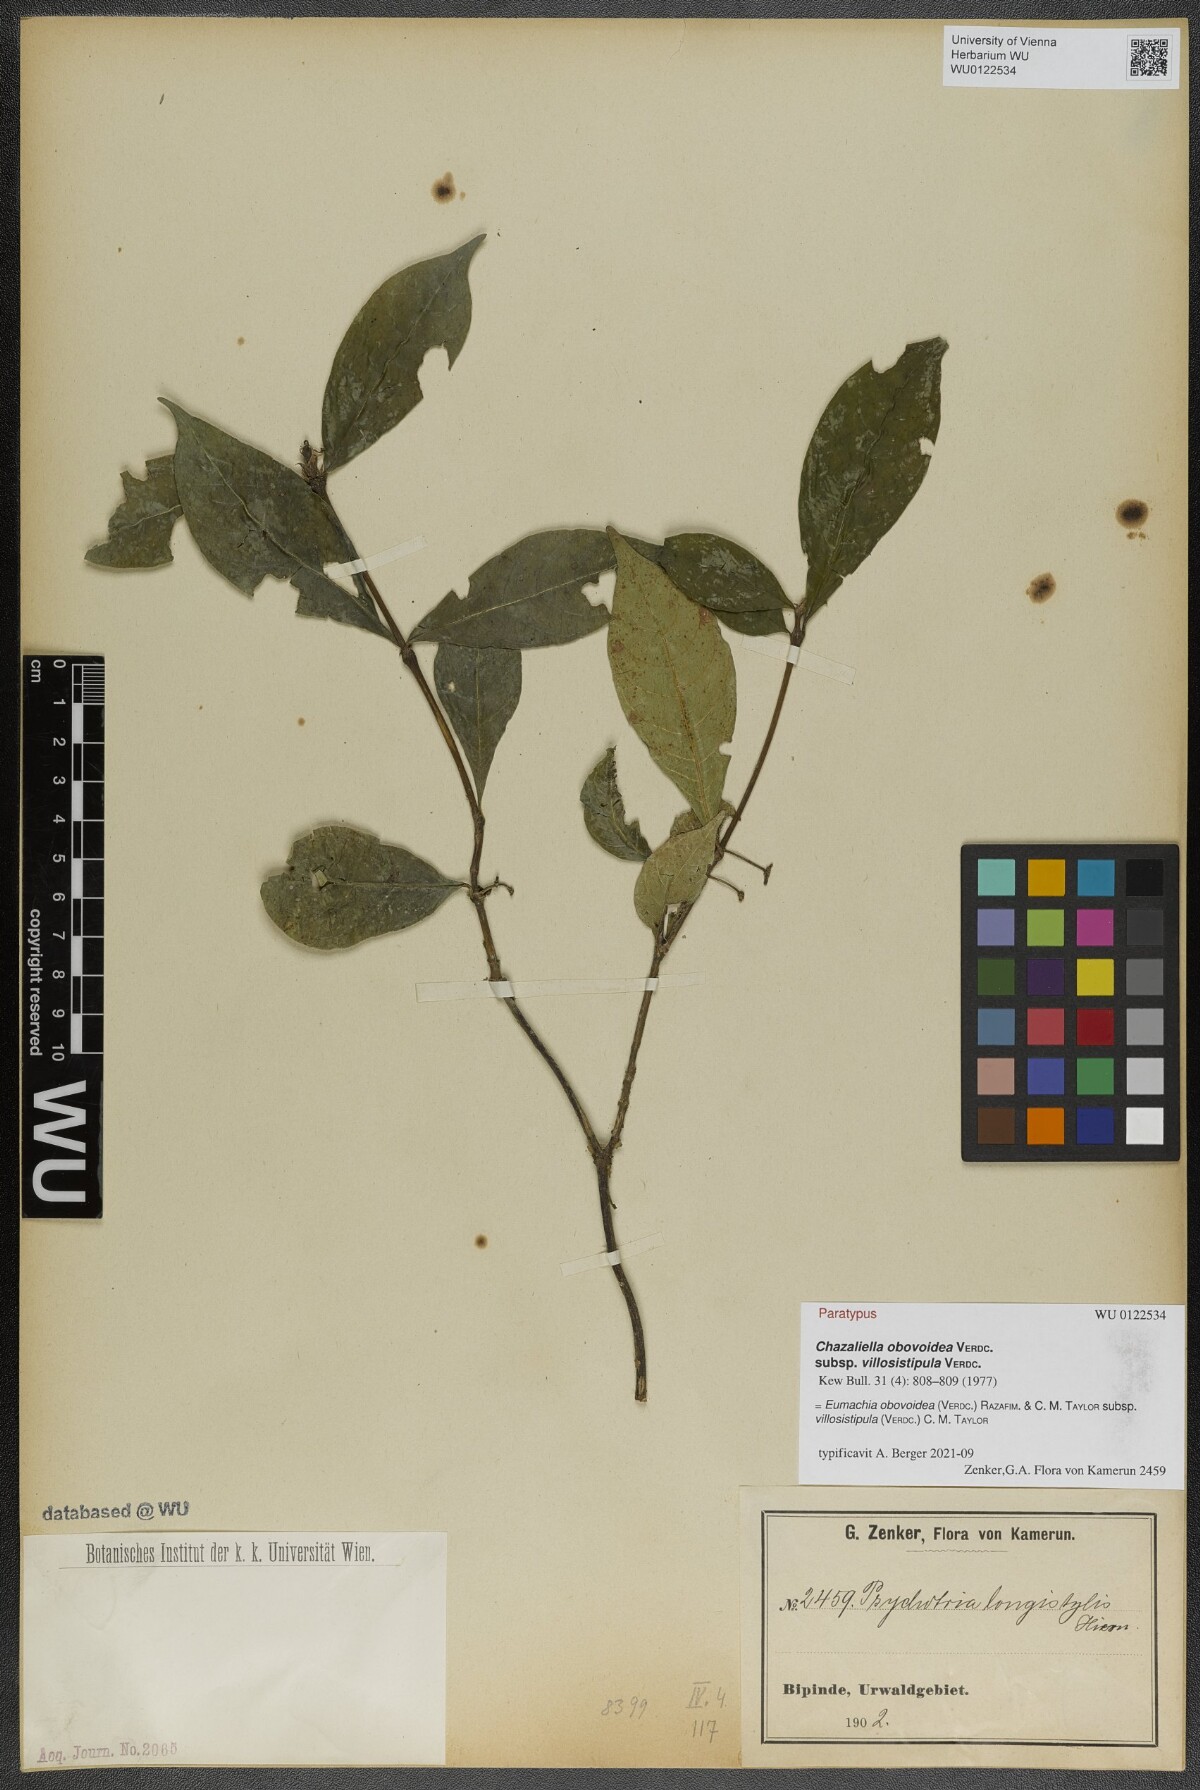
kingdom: Plantae
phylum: Tracheophyta
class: Magnoliopsida
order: Gentianales
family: Rubiaceae
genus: Eumachia
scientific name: Eumachia obovoidea
